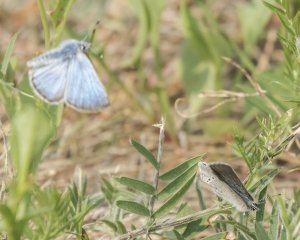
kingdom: Animalia
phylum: Arthropoda
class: Insecta
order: Lepidoptera
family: Lycaenidae
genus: Glaucopsyche
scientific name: Glaucopsyche lygdamus
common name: Silvery Blue
